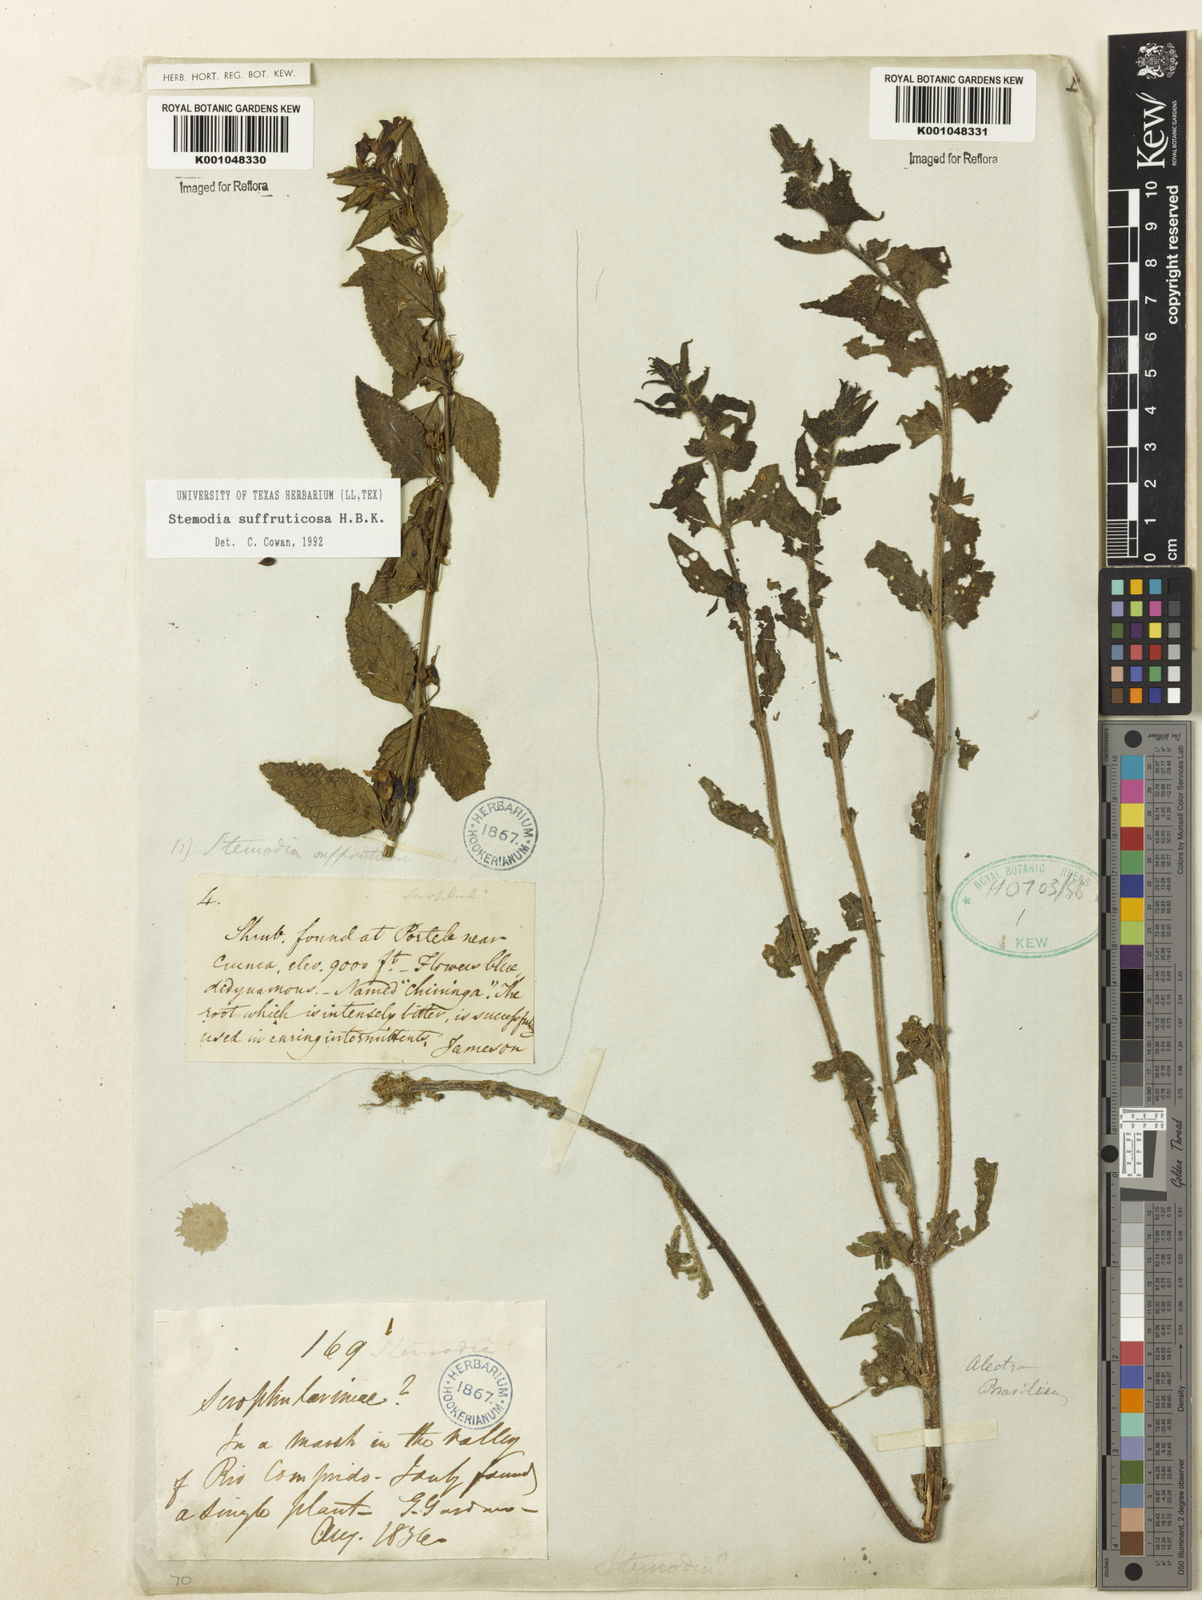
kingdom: Plantae
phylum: Tracheophyta
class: Magnoliopsida
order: Lamiales
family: Plantaginaceae
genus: Stemodia
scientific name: Stemodia suffruticosa
